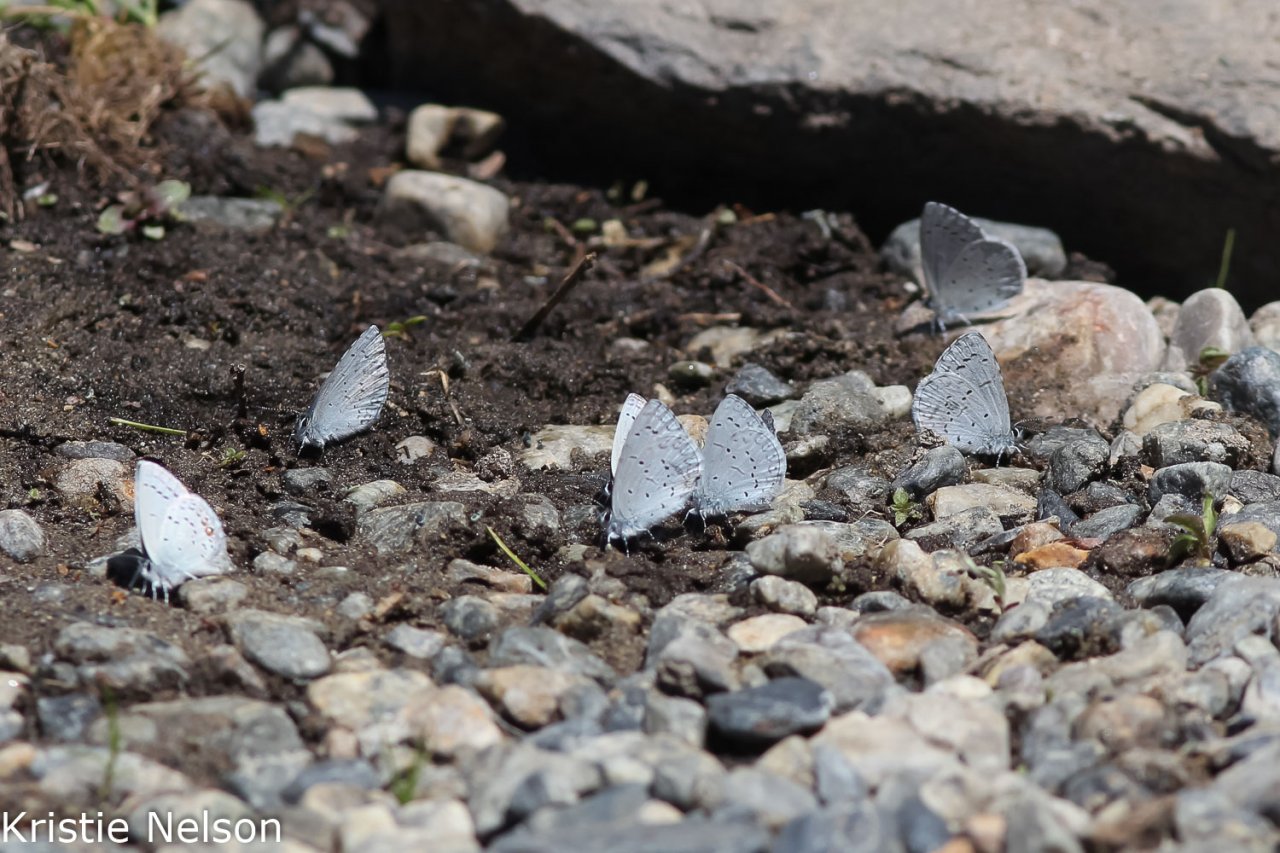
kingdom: Animalia
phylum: Arthropoda
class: Insecta
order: Lepidoptera
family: Lycaenidae
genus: Celastrina
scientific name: Celastrina ladon
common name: Echo Azure
